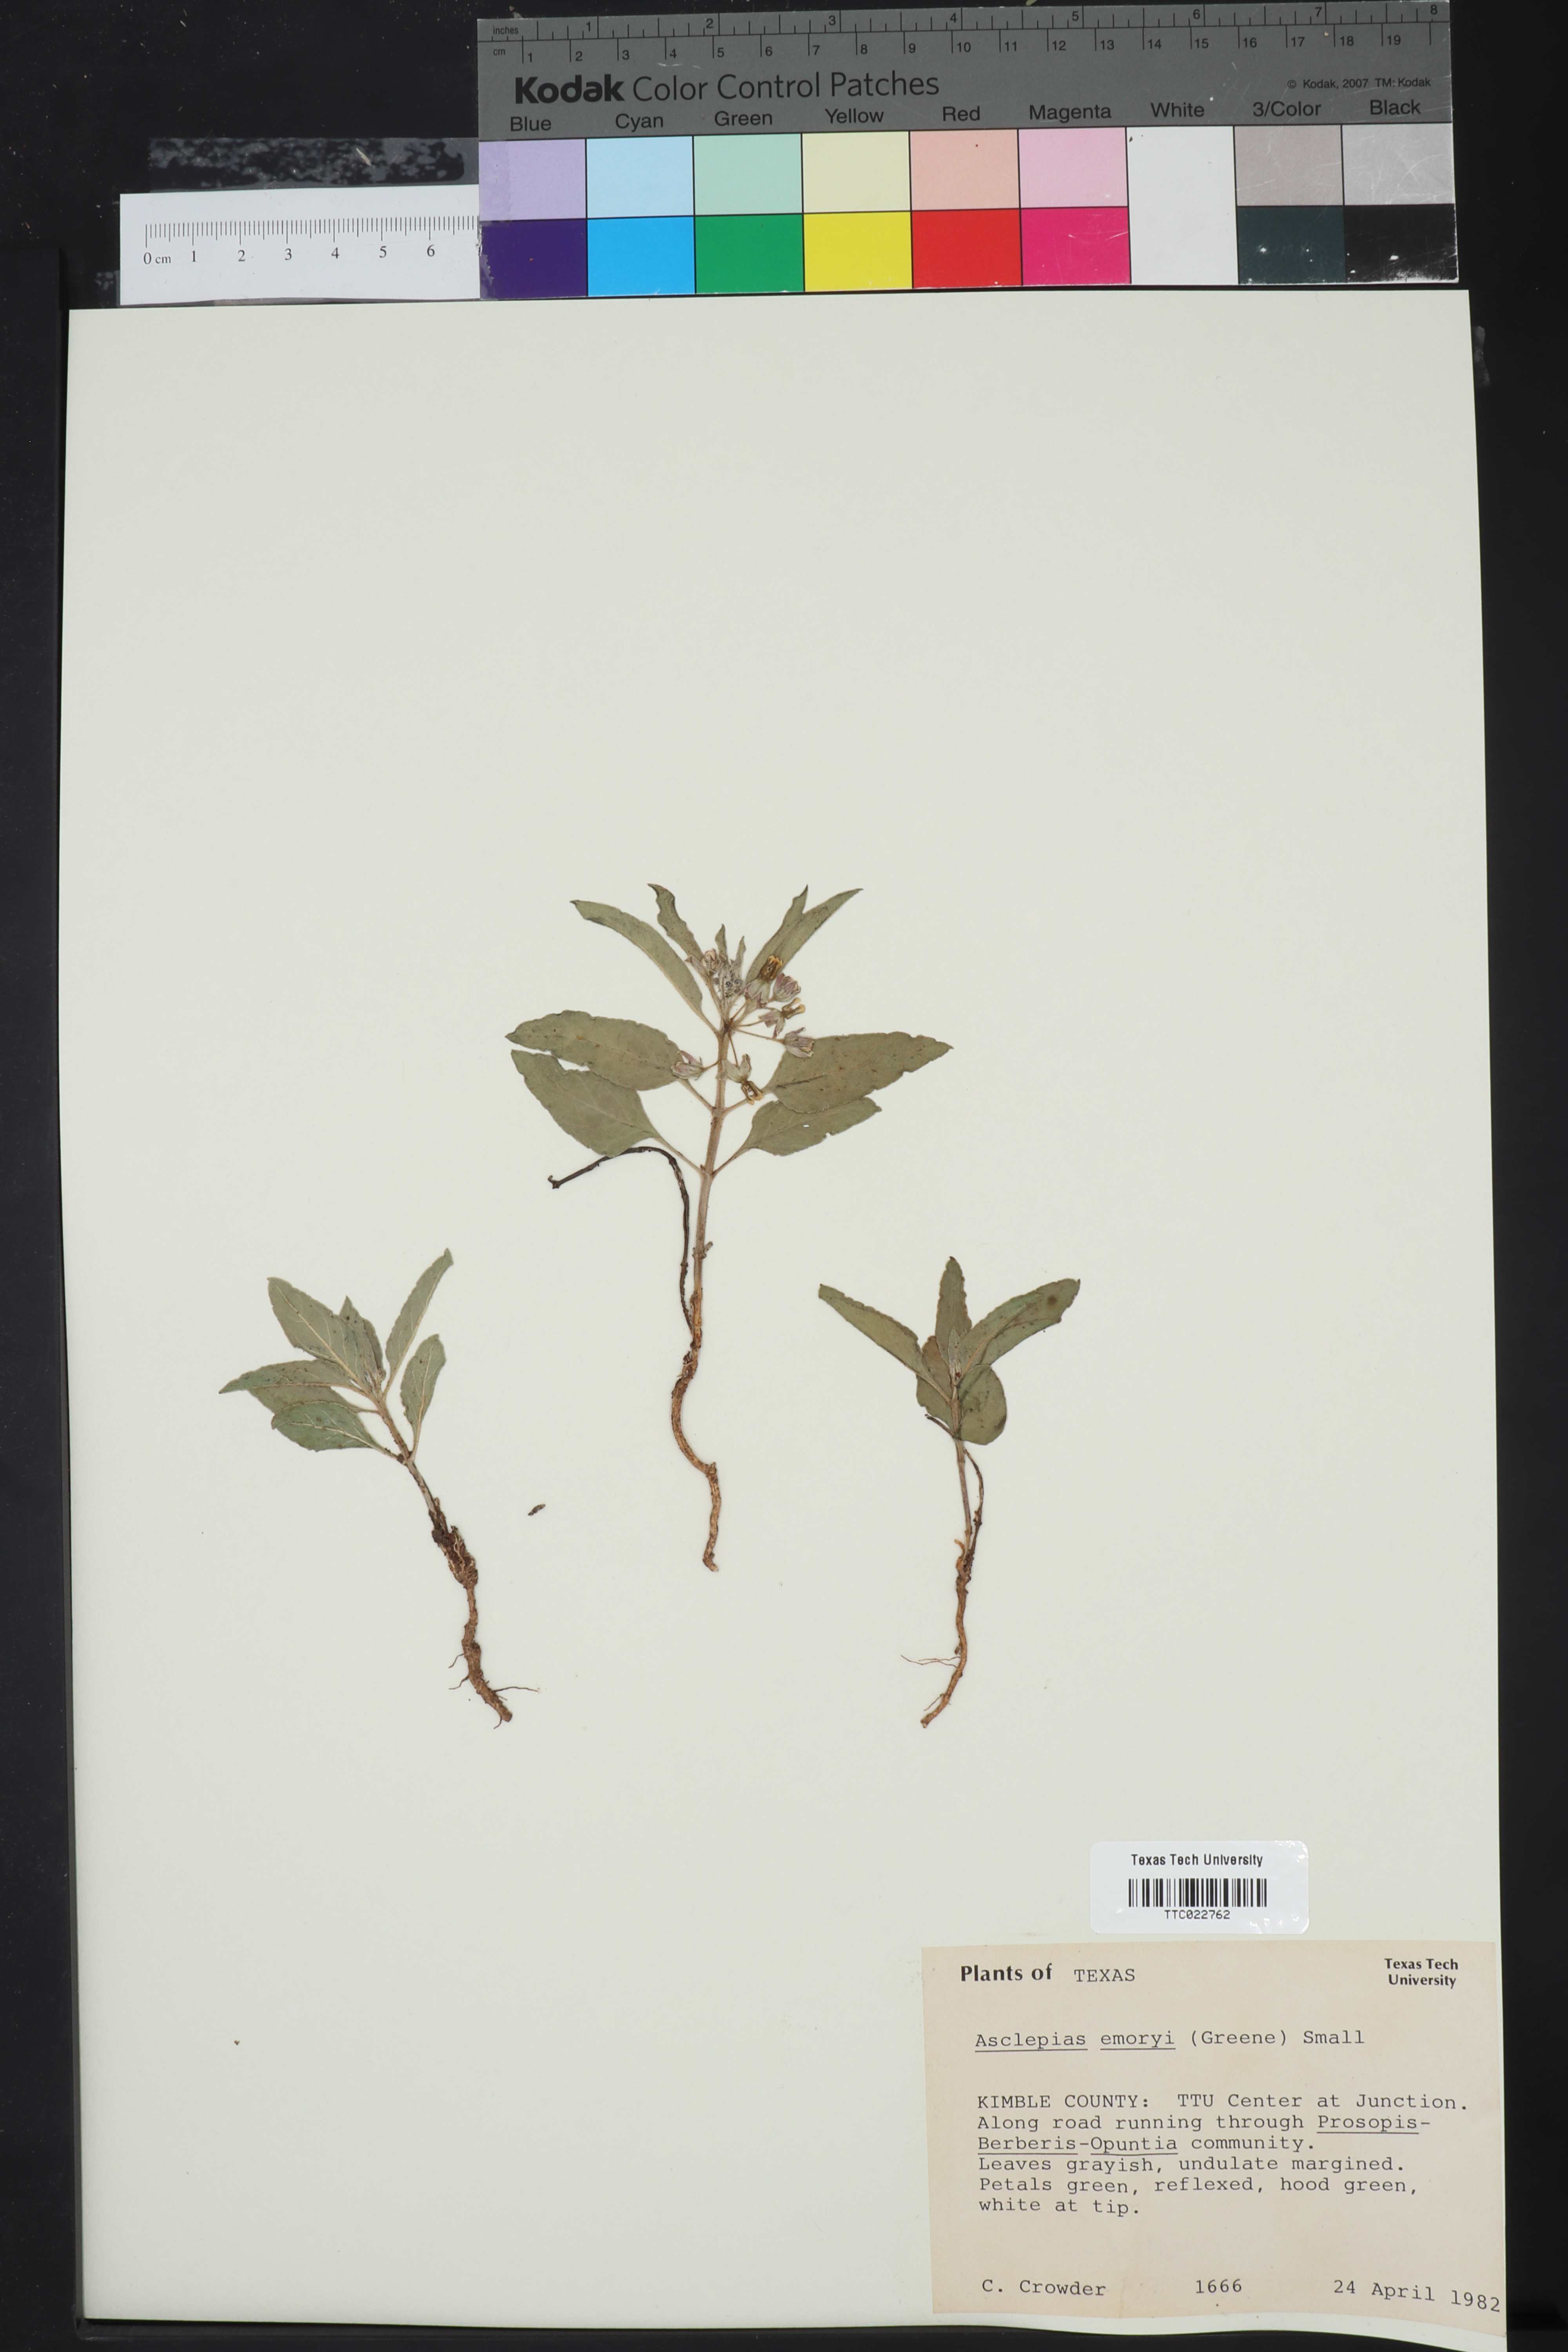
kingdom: Plantae
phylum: Tracheophyta
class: Magnoliopsida
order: Gentianales
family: Apocynaceae
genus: Asclepias
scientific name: Asclepias emoryi
